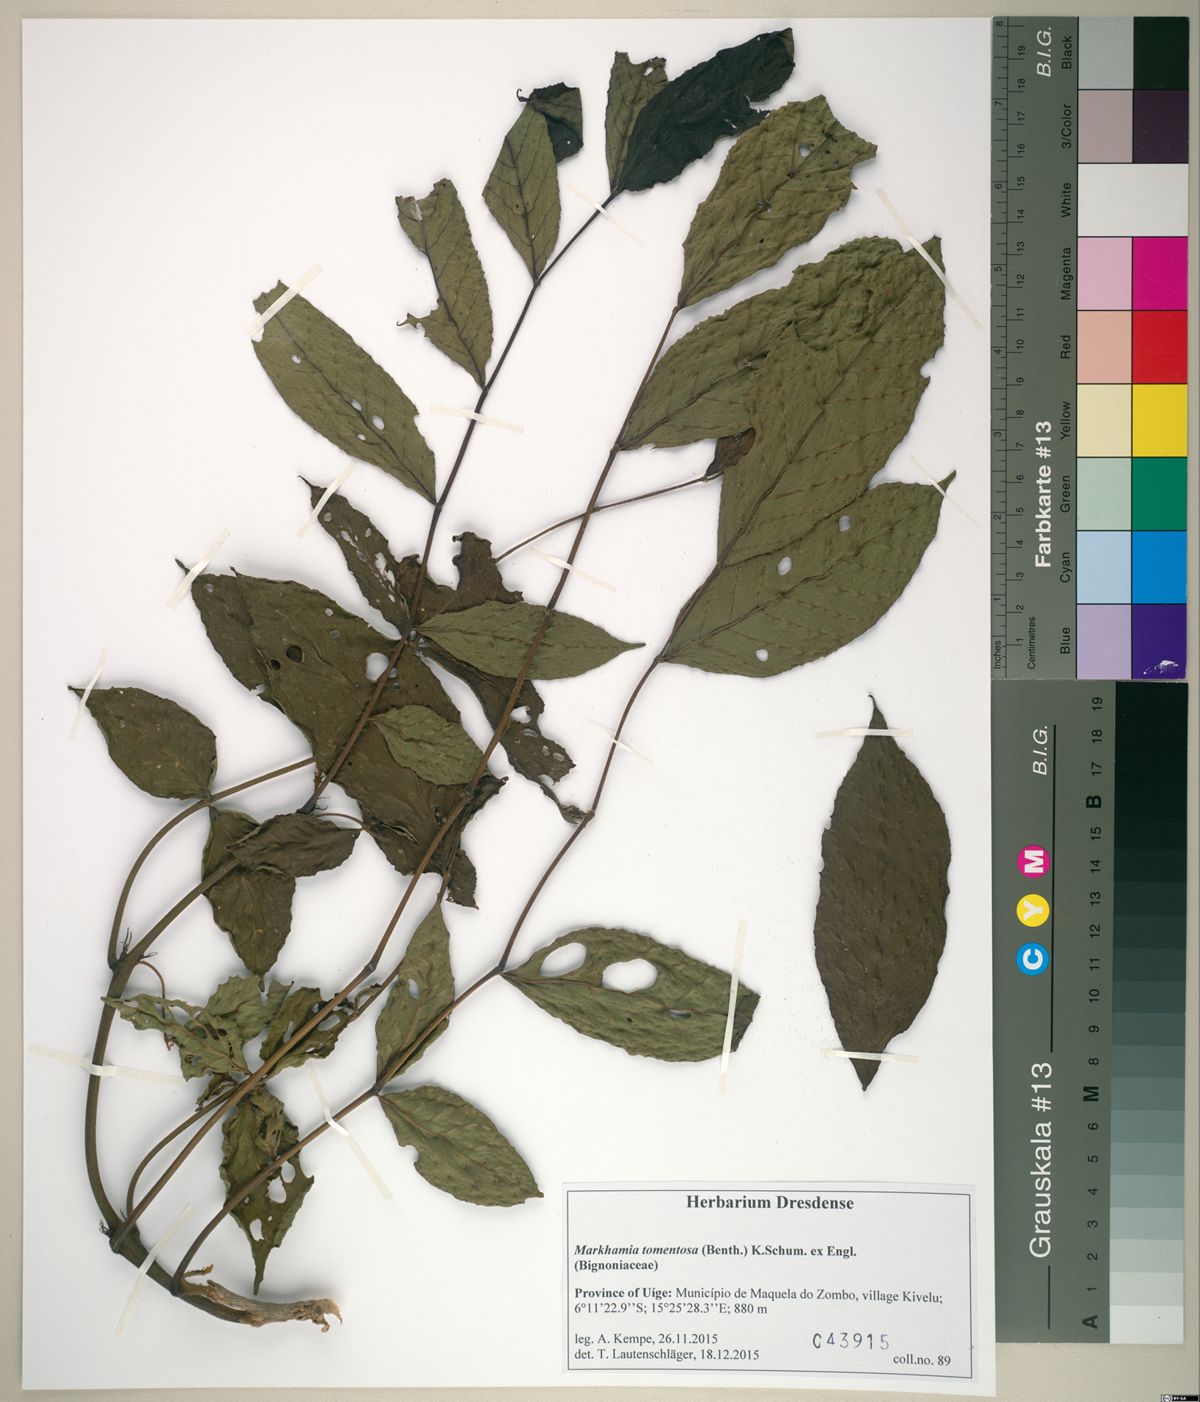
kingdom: Plantae
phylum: Tracheophyta
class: Magnoliopsida
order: Lamiales
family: Bignoniaceae
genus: Markhamia
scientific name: Markhamia tomentosa
